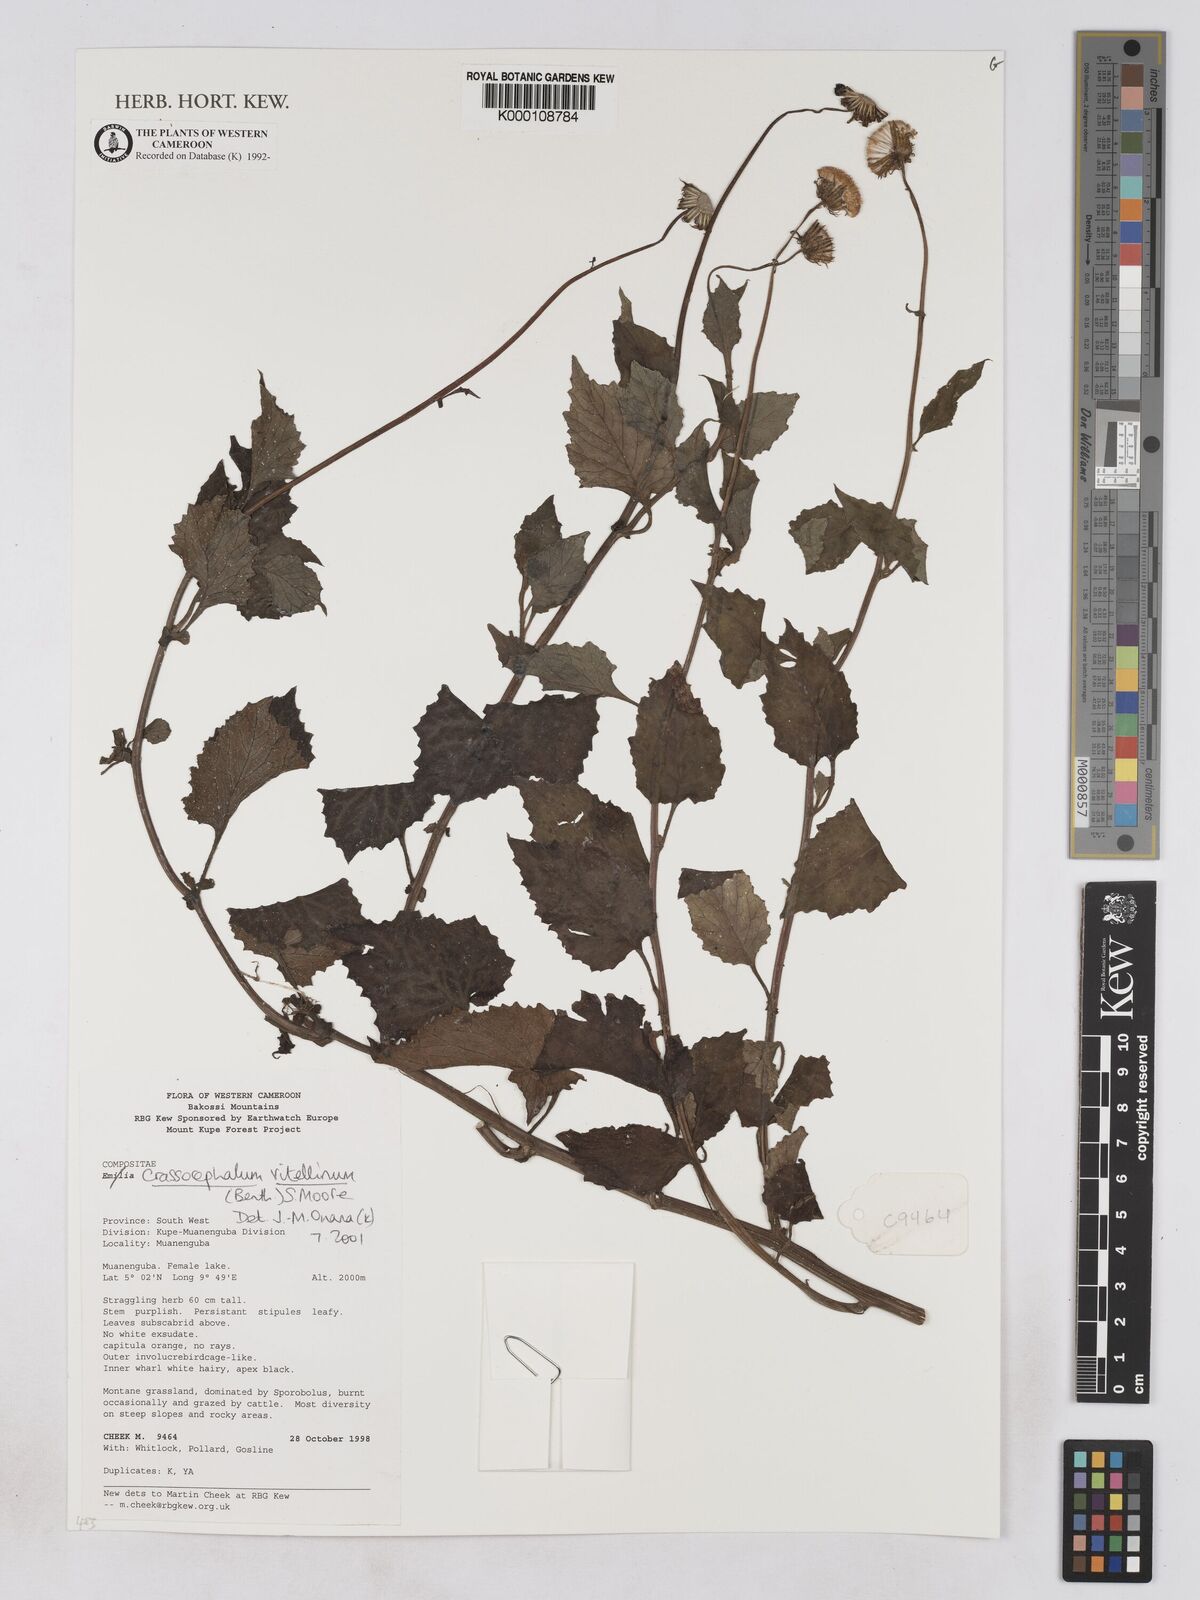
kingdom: Plantae
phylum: Tracheophyta
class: Magnoliopsida
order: Asterales
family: Asteraceae
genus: Crassocephalum
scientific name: Crassocephalum vitellinum
